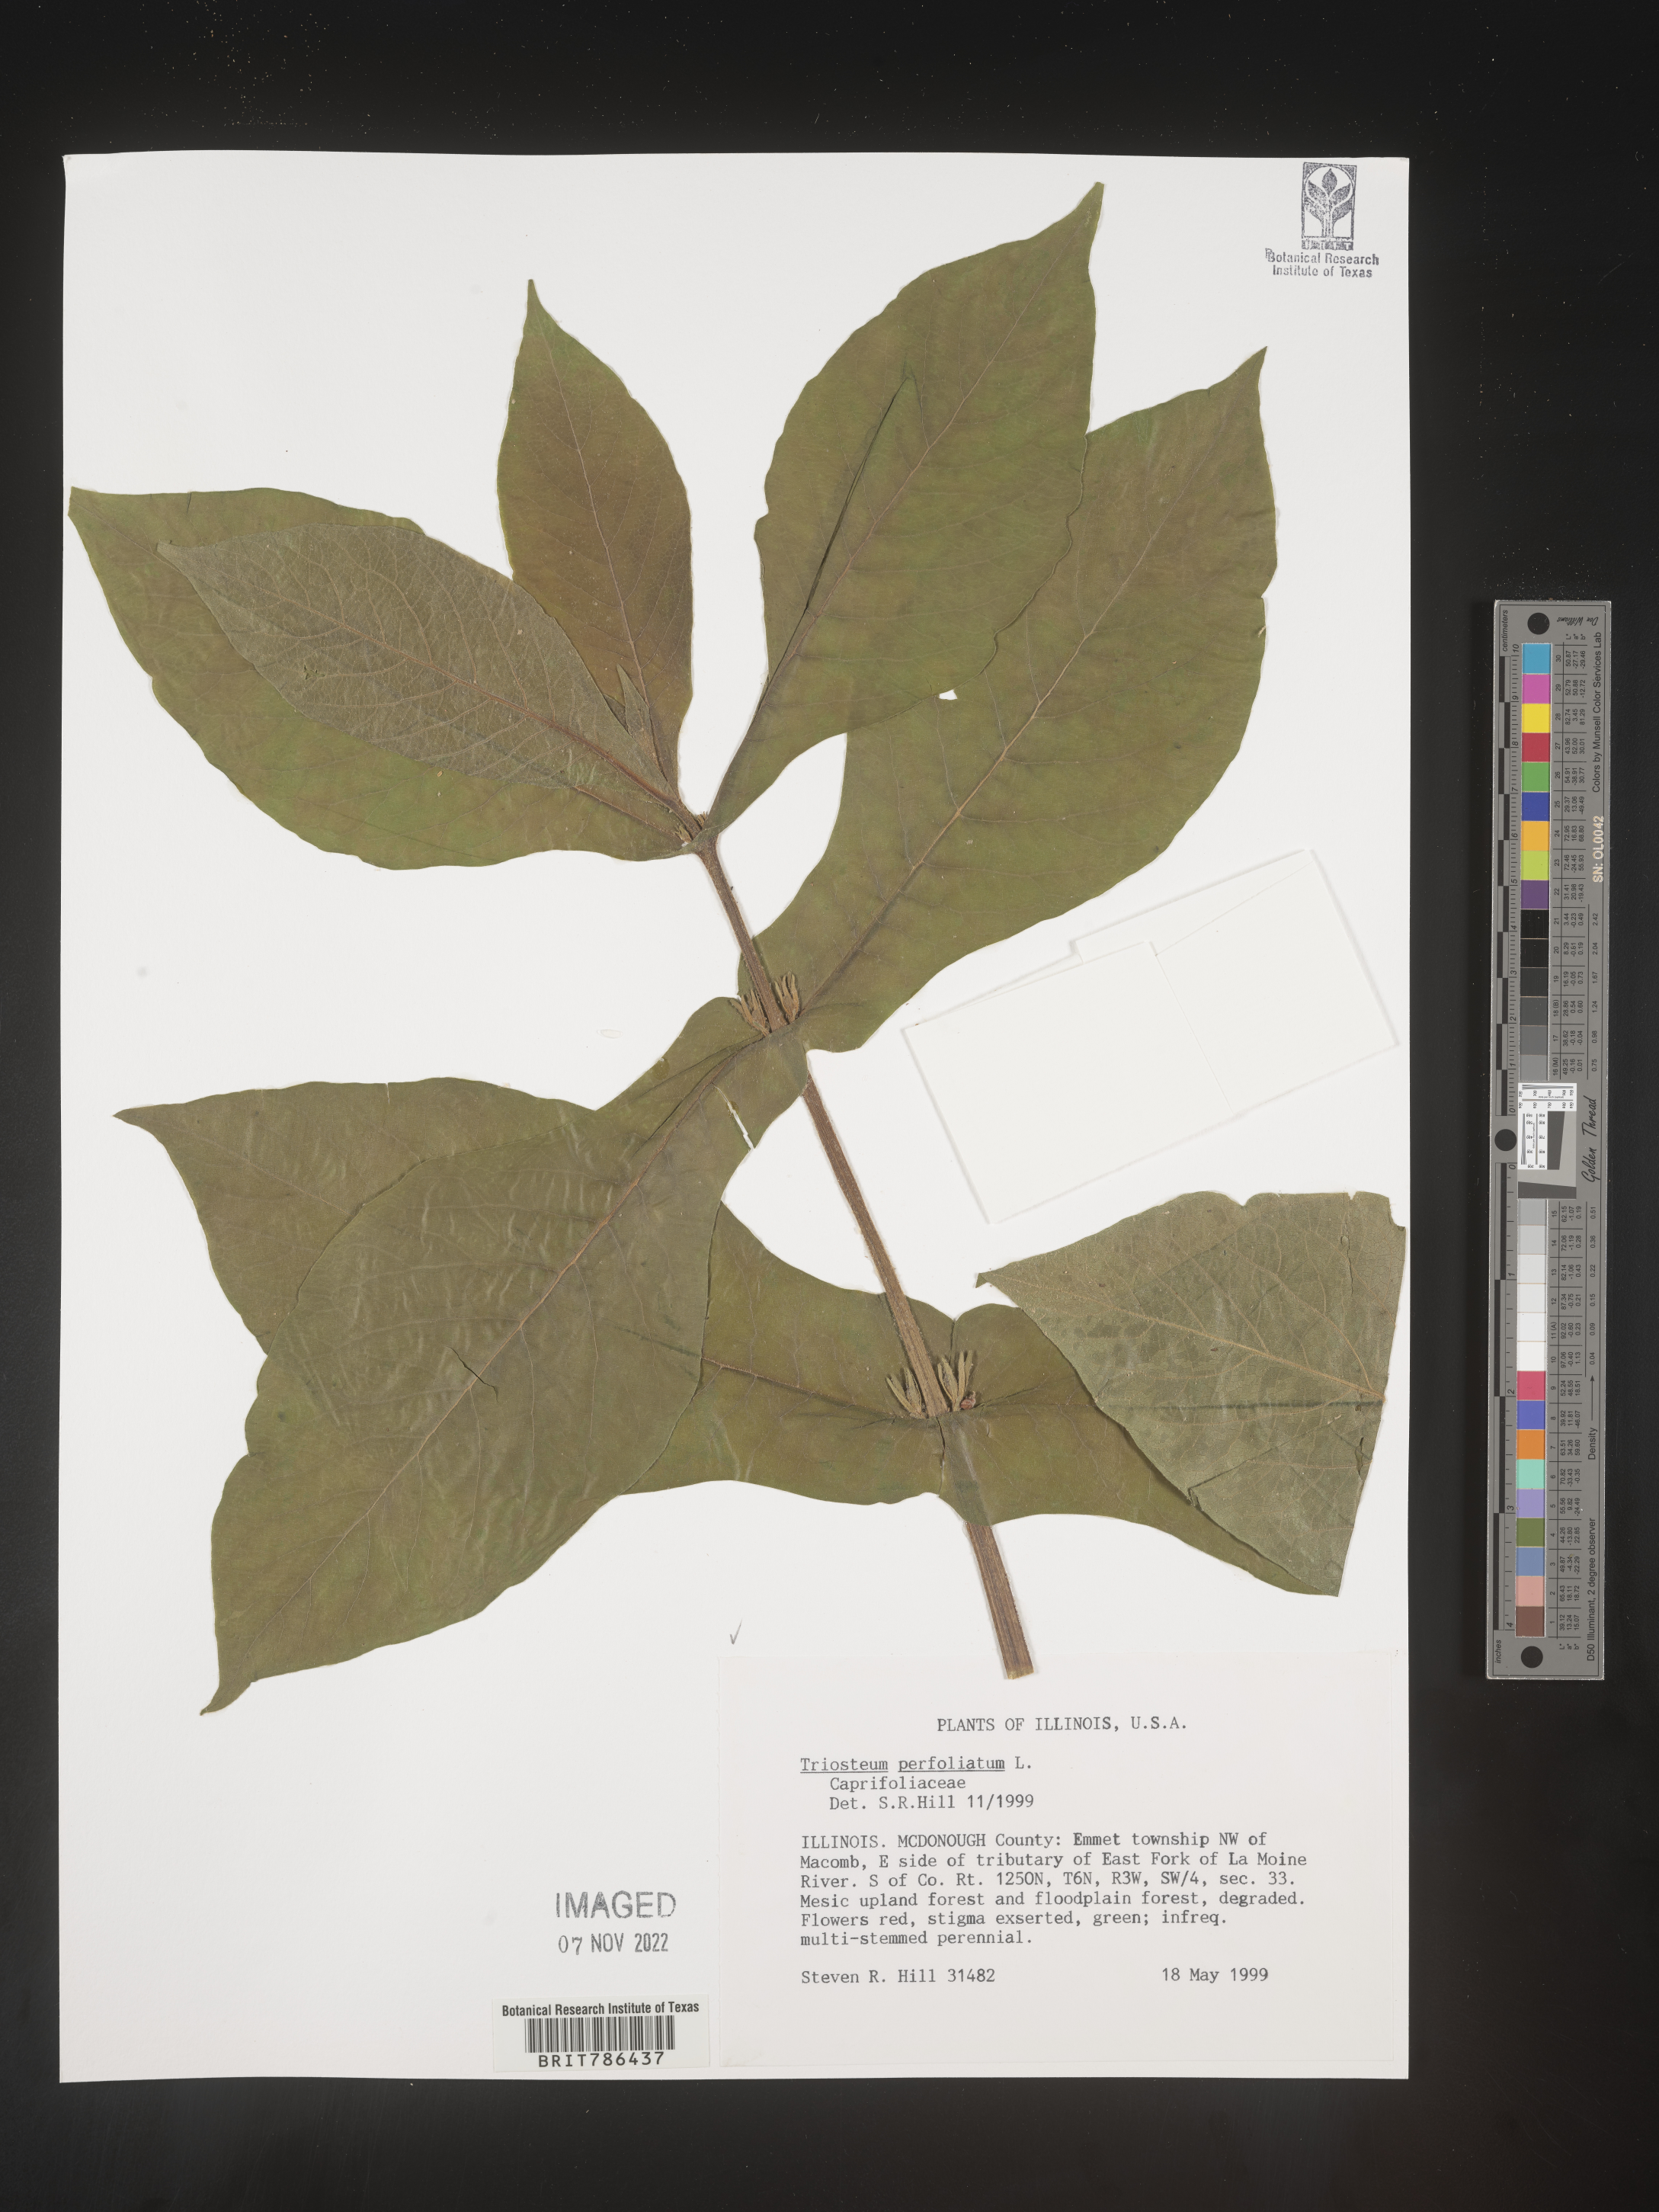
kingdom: Plantae
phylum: Tracheophyta
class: Magnoliopsida
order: Dipsacales
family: Caprifoliaceae
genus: Triosteum
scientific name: Triosteum perfoliatum
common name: Common horse-gentian
